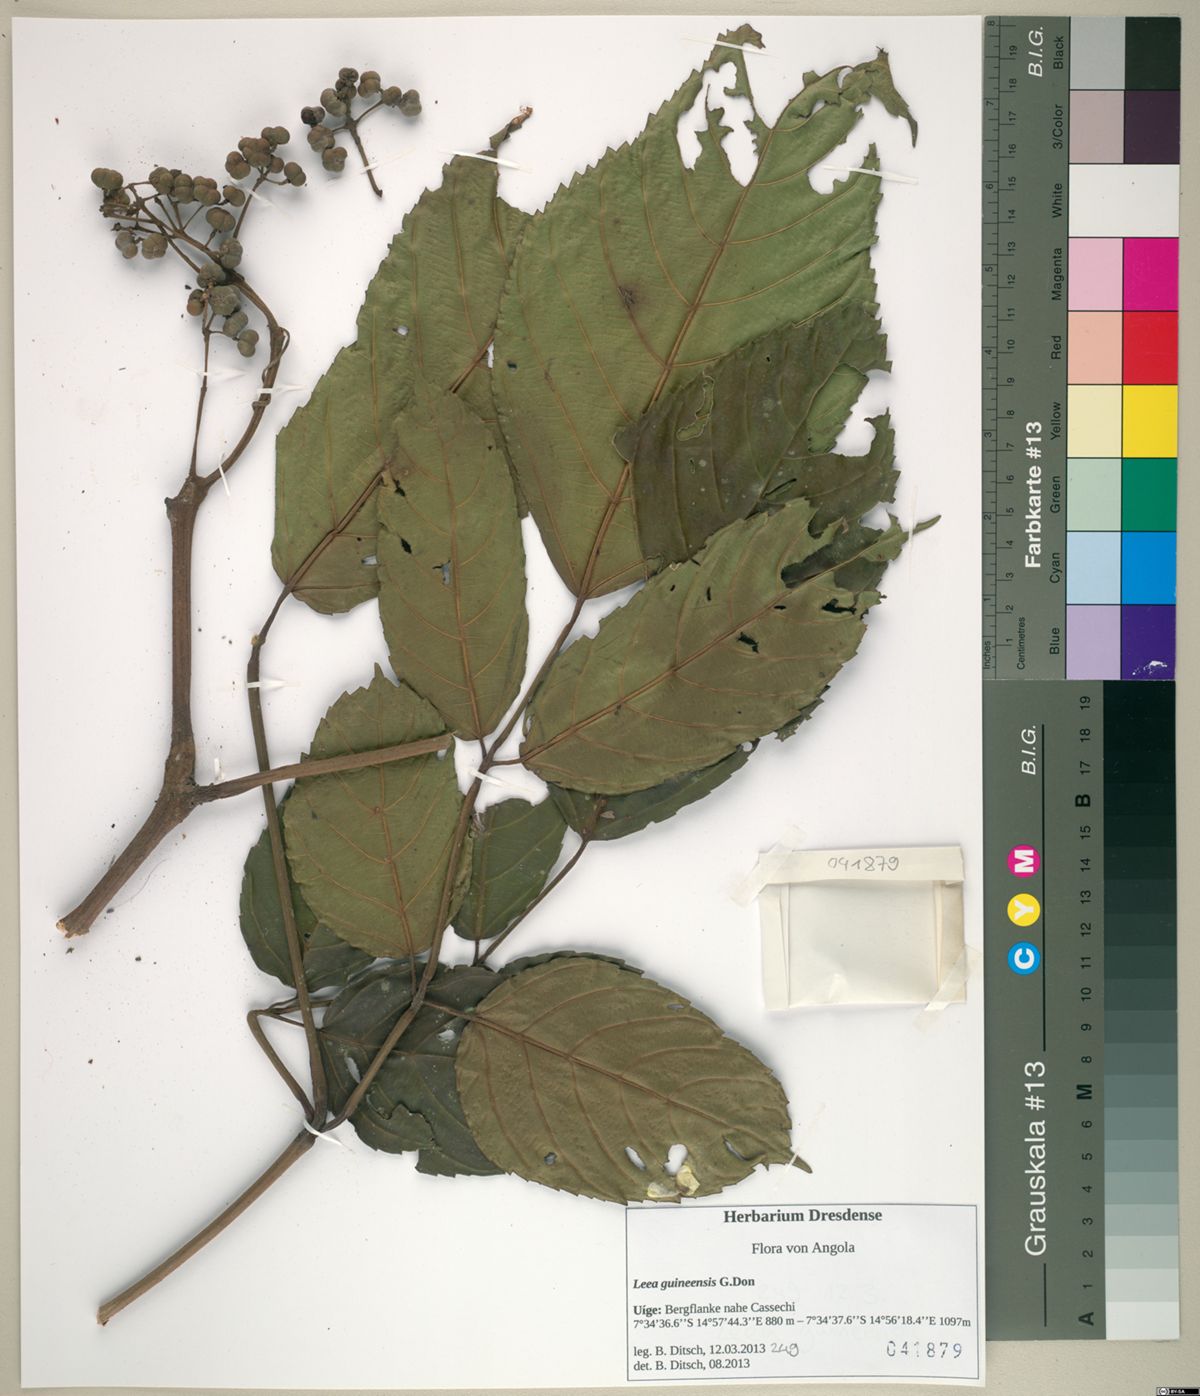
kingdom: Plantae
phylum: Tracheophyta
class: Magnoliopsida
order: Vitales
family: Vitaceae
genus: Leea
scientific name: Leea guineensis
